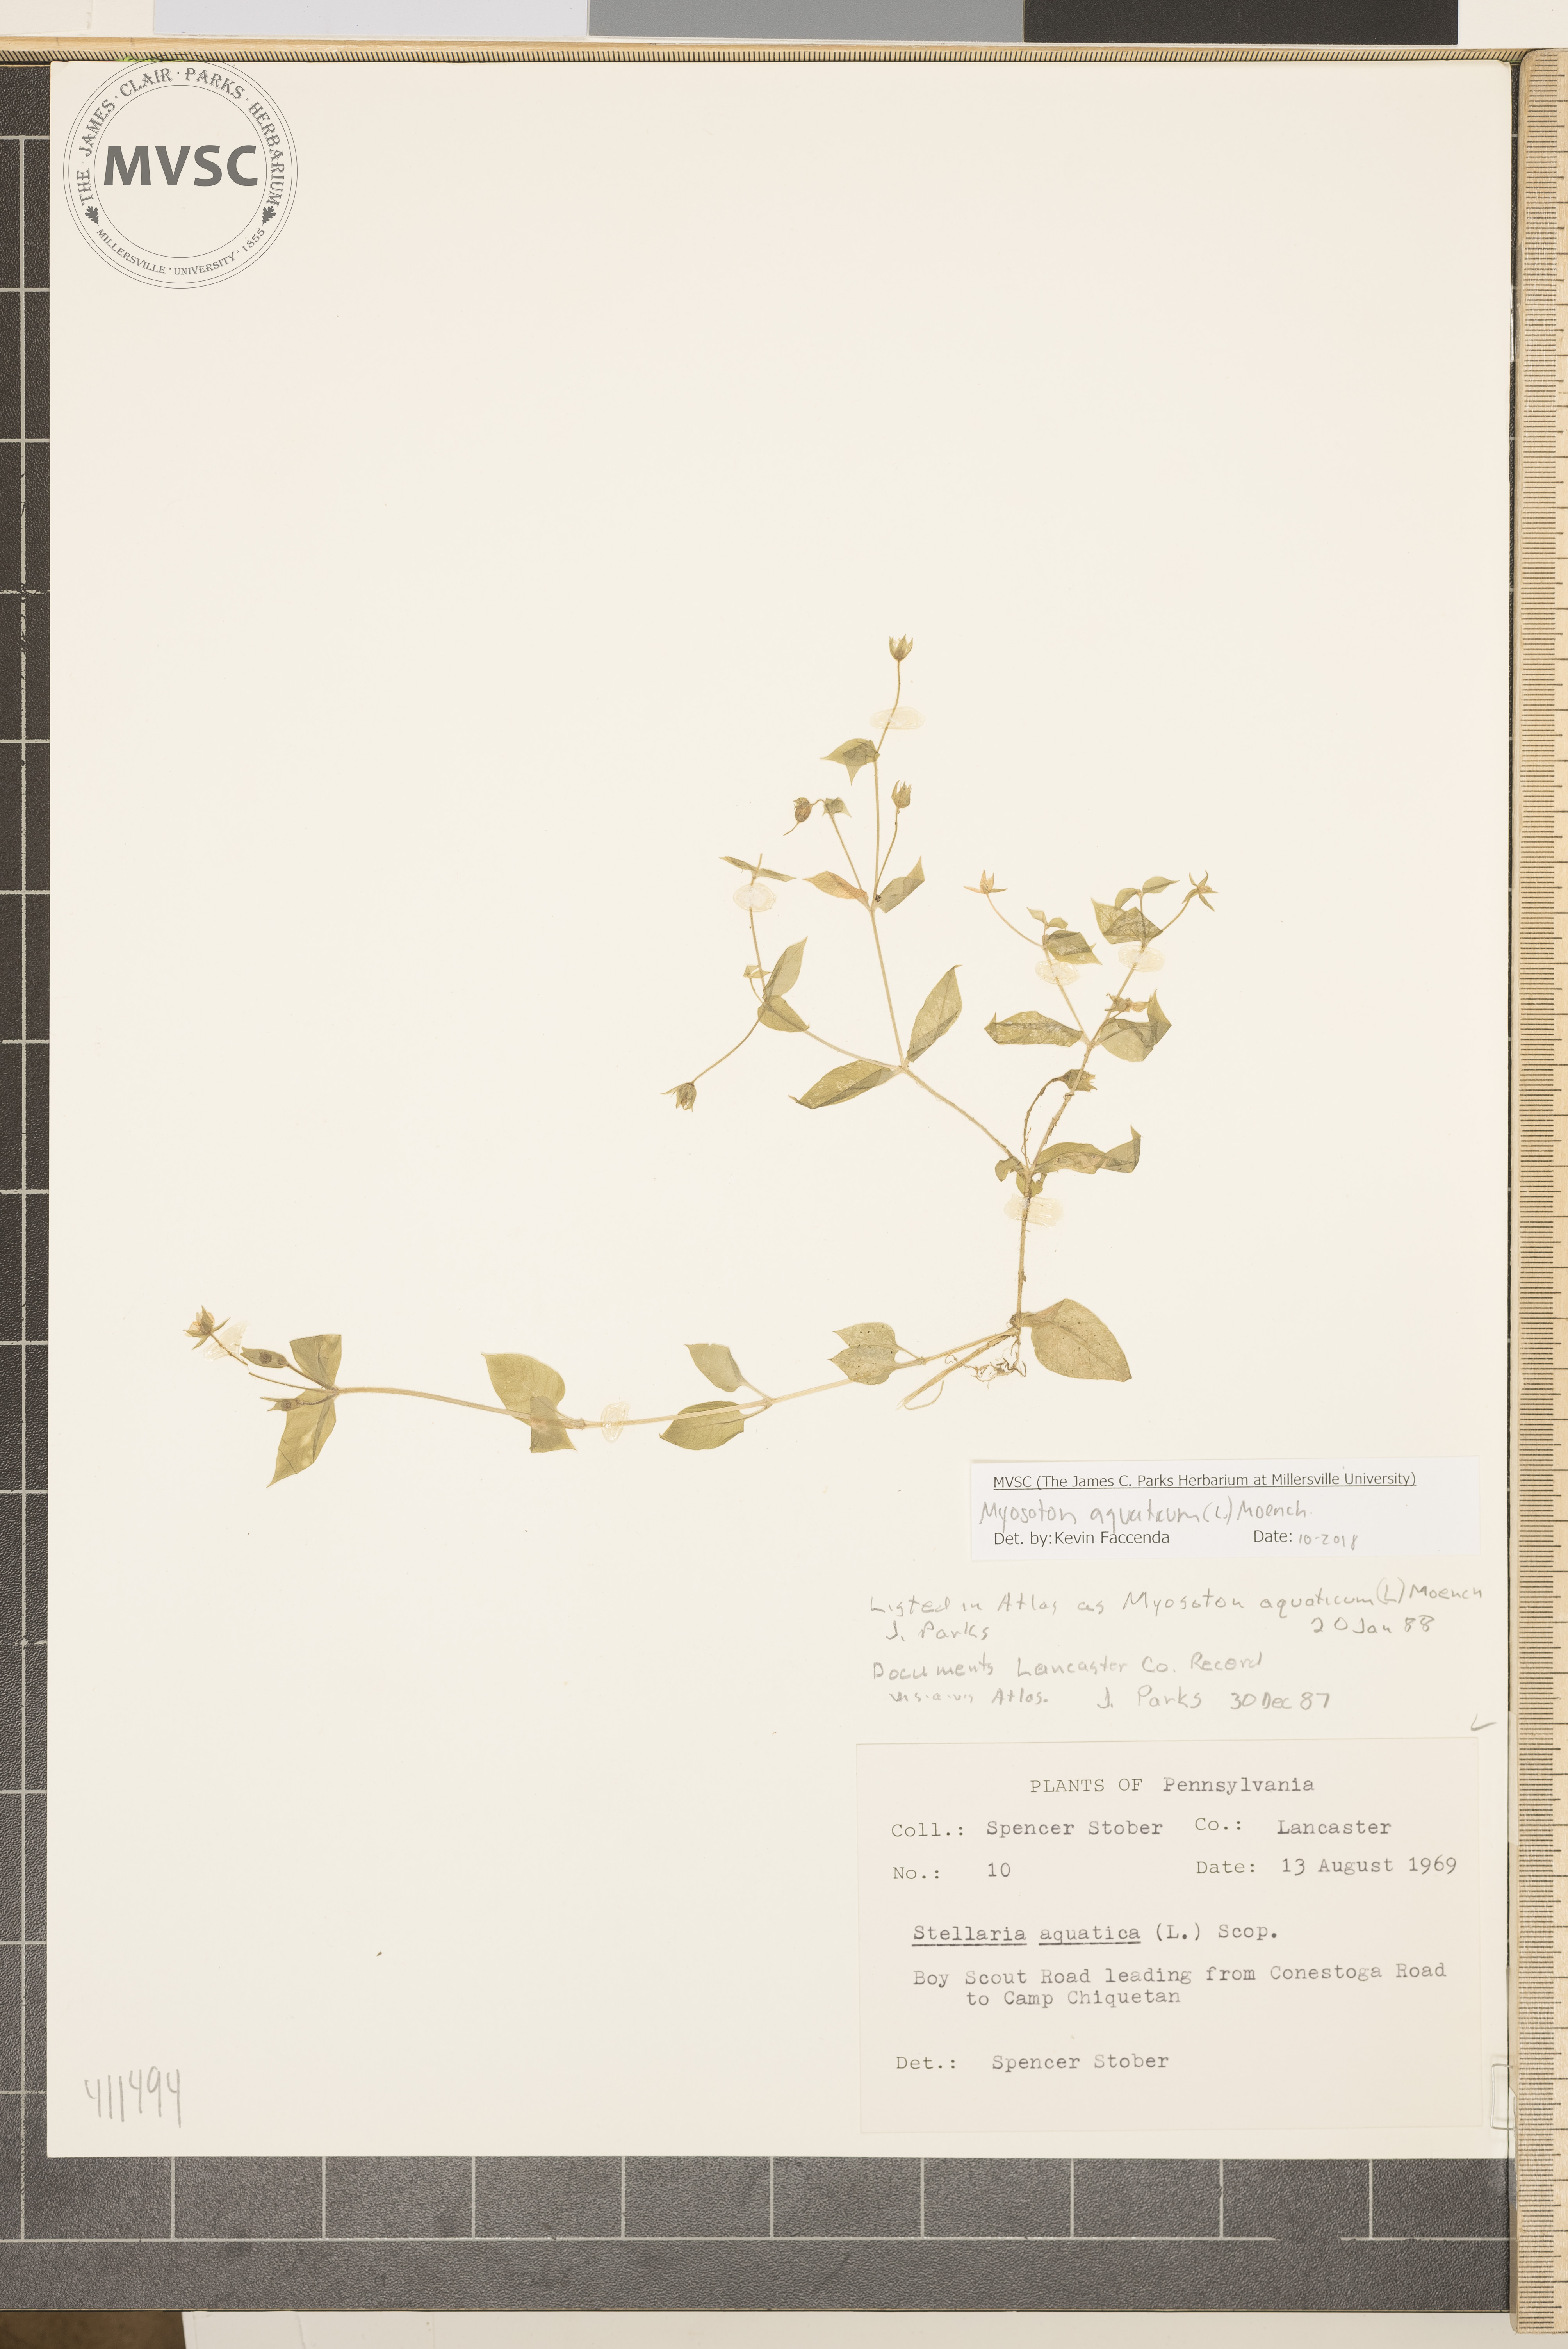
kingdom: Plantae
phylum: Tracheophyta
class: Magnoliopsida
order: Caryophyllales
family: Caryophyllaceae
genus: Stellaria
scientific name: Stellaria aquatica
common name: Giant chickweed
